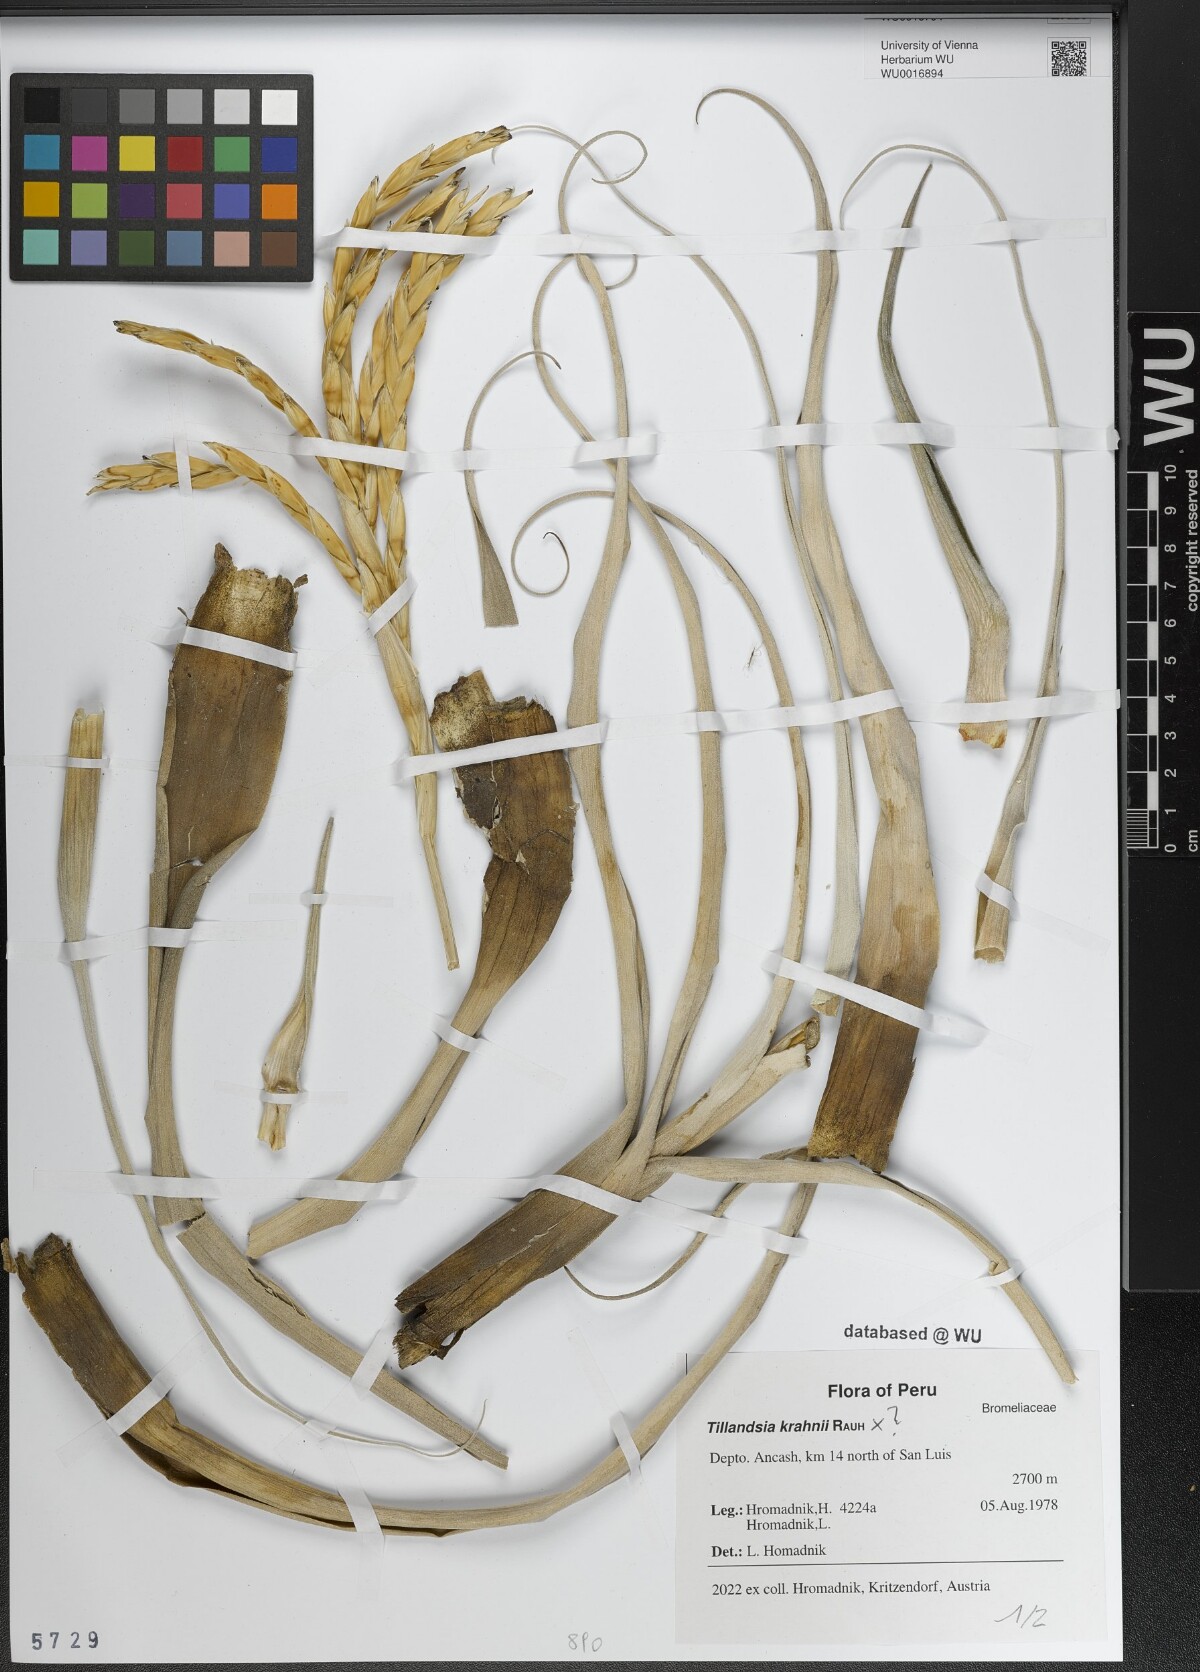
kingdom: Plantae
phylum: Tracheophyta
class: Liliopsida
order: Poales
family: Bromeliaceae
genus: Tillandsia
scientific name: Tillandsia krahnii
